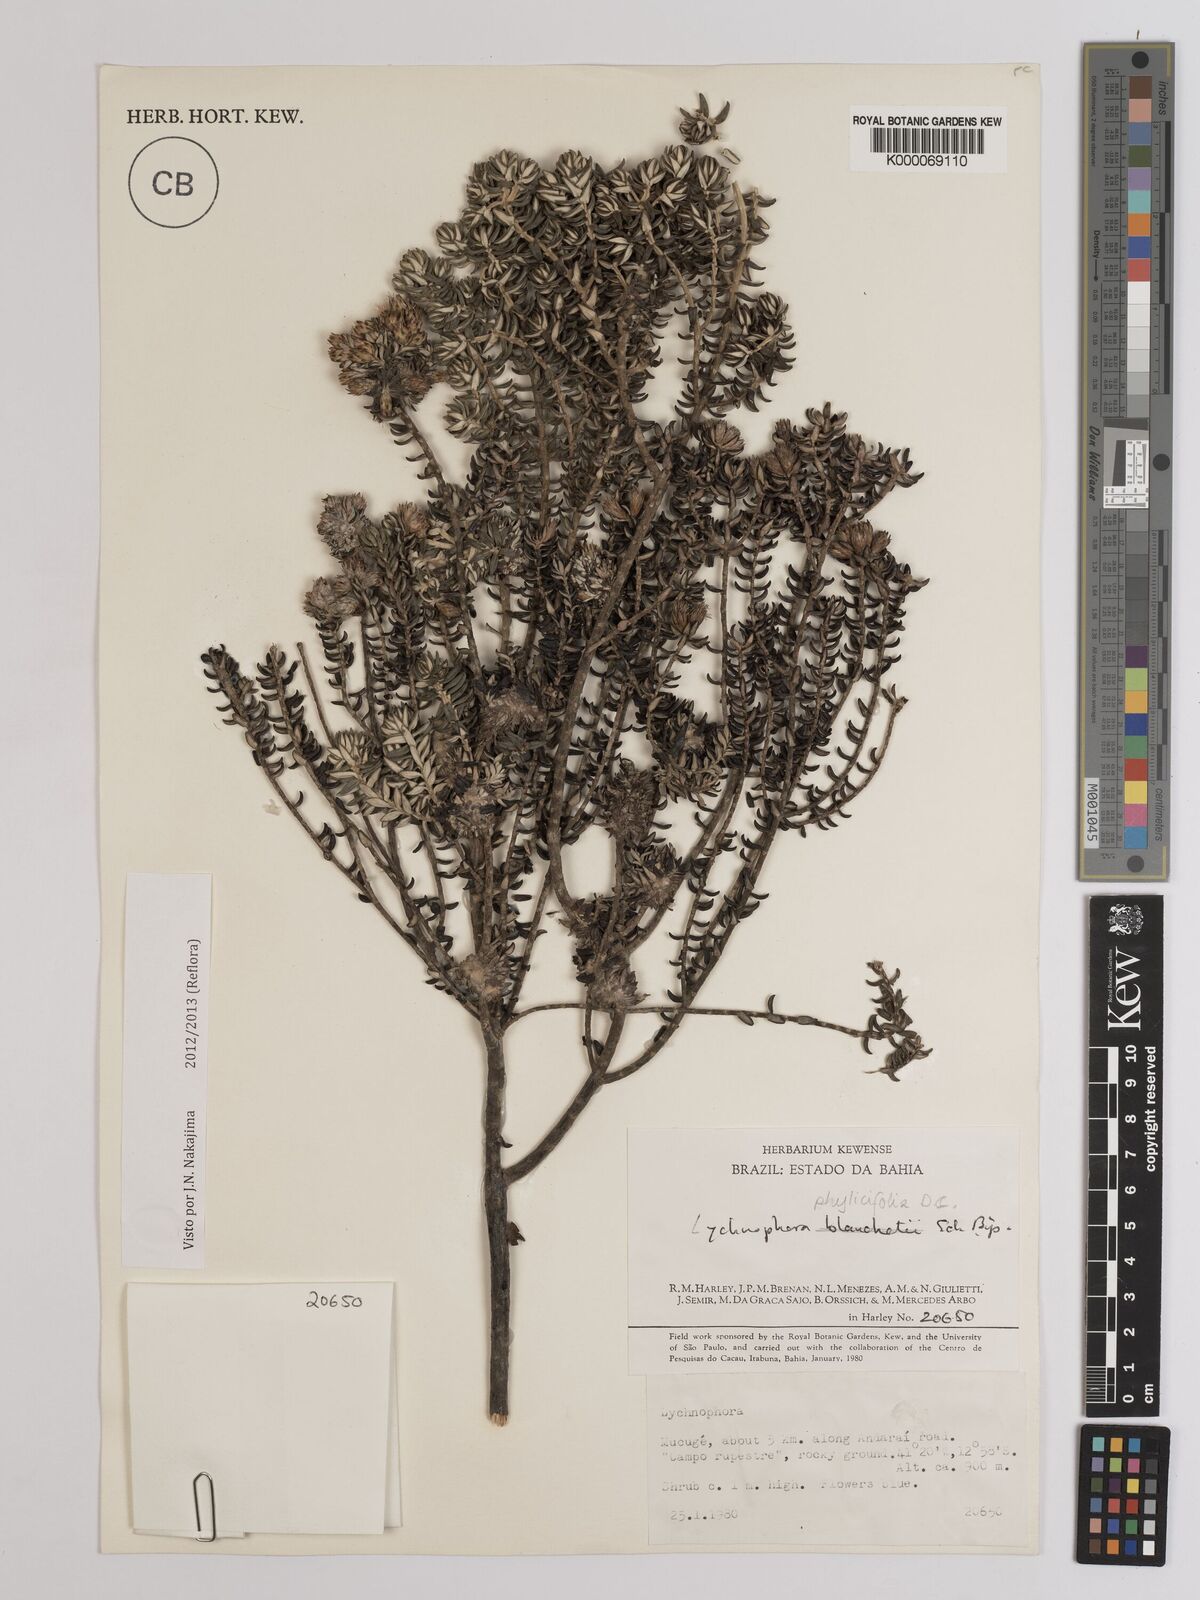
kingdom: Plantae
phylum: Tracheophyta
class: Magnoliopsida
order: Asterales
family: Asteraceae
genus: Lychnophora
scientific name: Lychnophora phylicifolia
